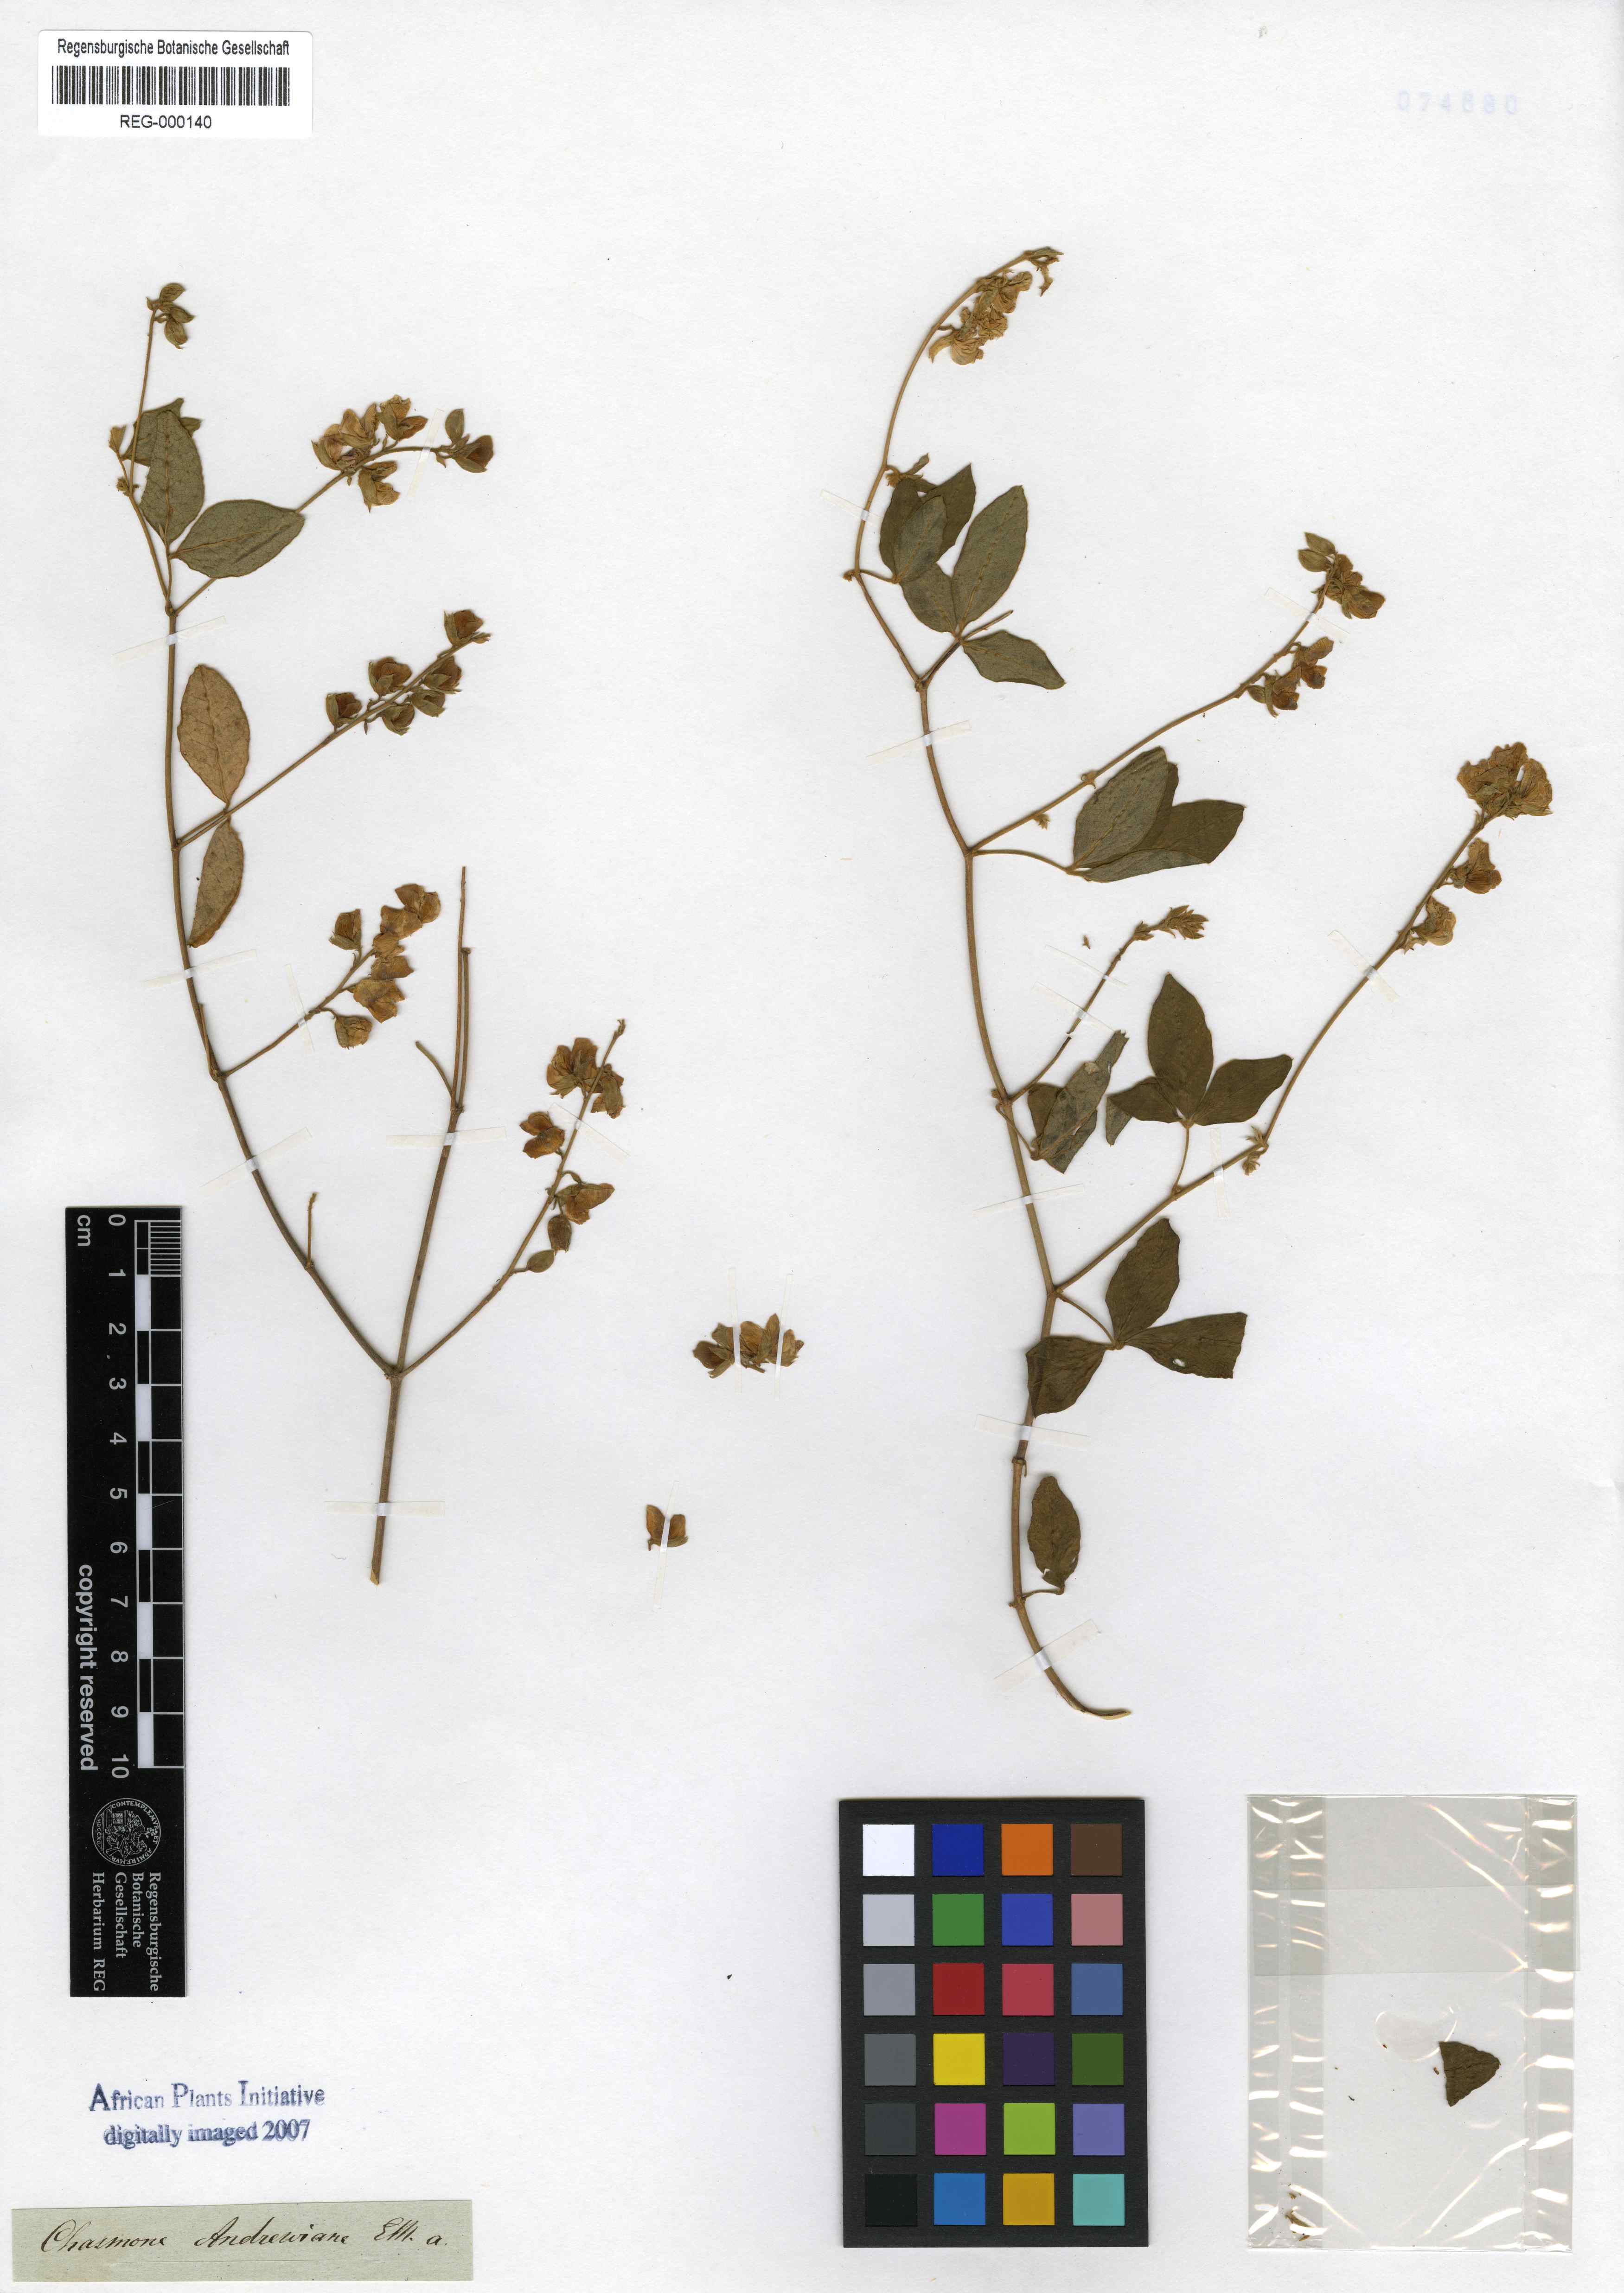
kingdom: Plantae
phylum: Tracheophyta
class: Magnoliopsida
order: Fabales
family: Fabaceae
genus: Argyrolobium
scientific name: Argyrolobium tomentosum
